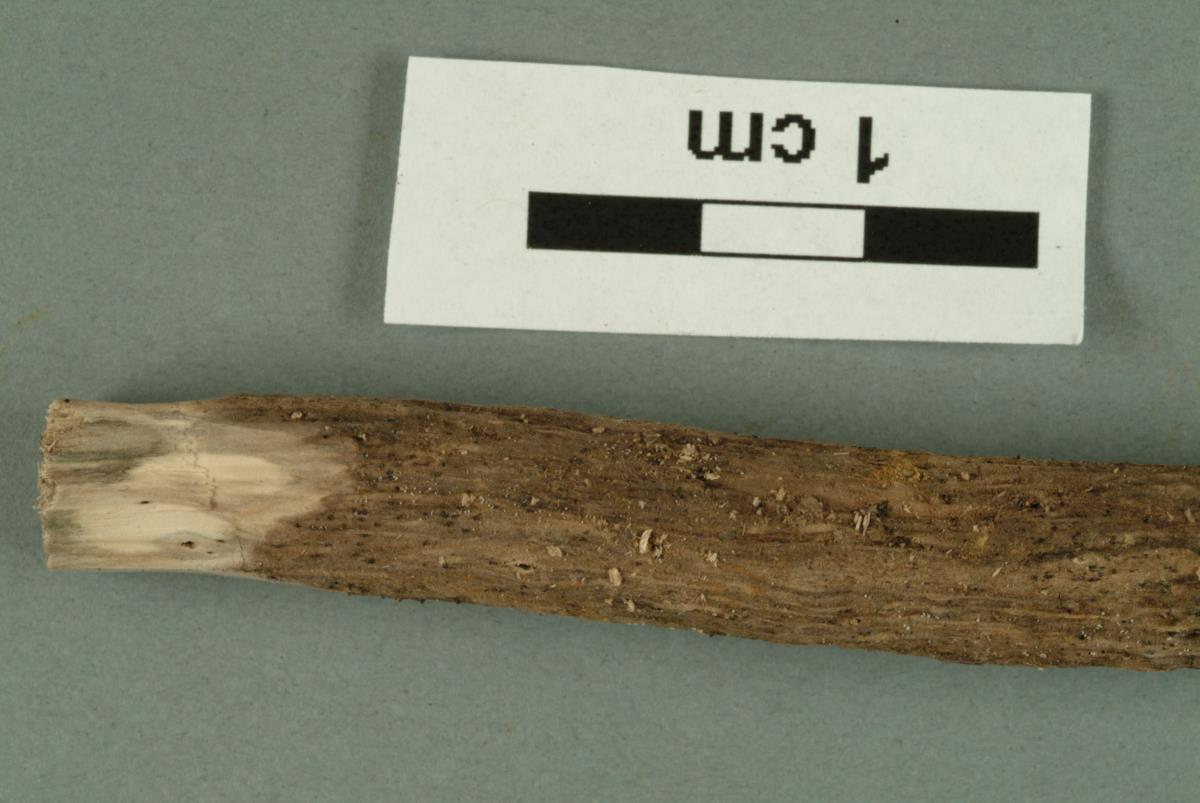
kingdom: Fungi
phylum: Ascomycota
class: Sordariomycetes
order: Diaporthales
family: Gnomoniaceae
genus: Gnomonia
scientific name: Gnomonia
